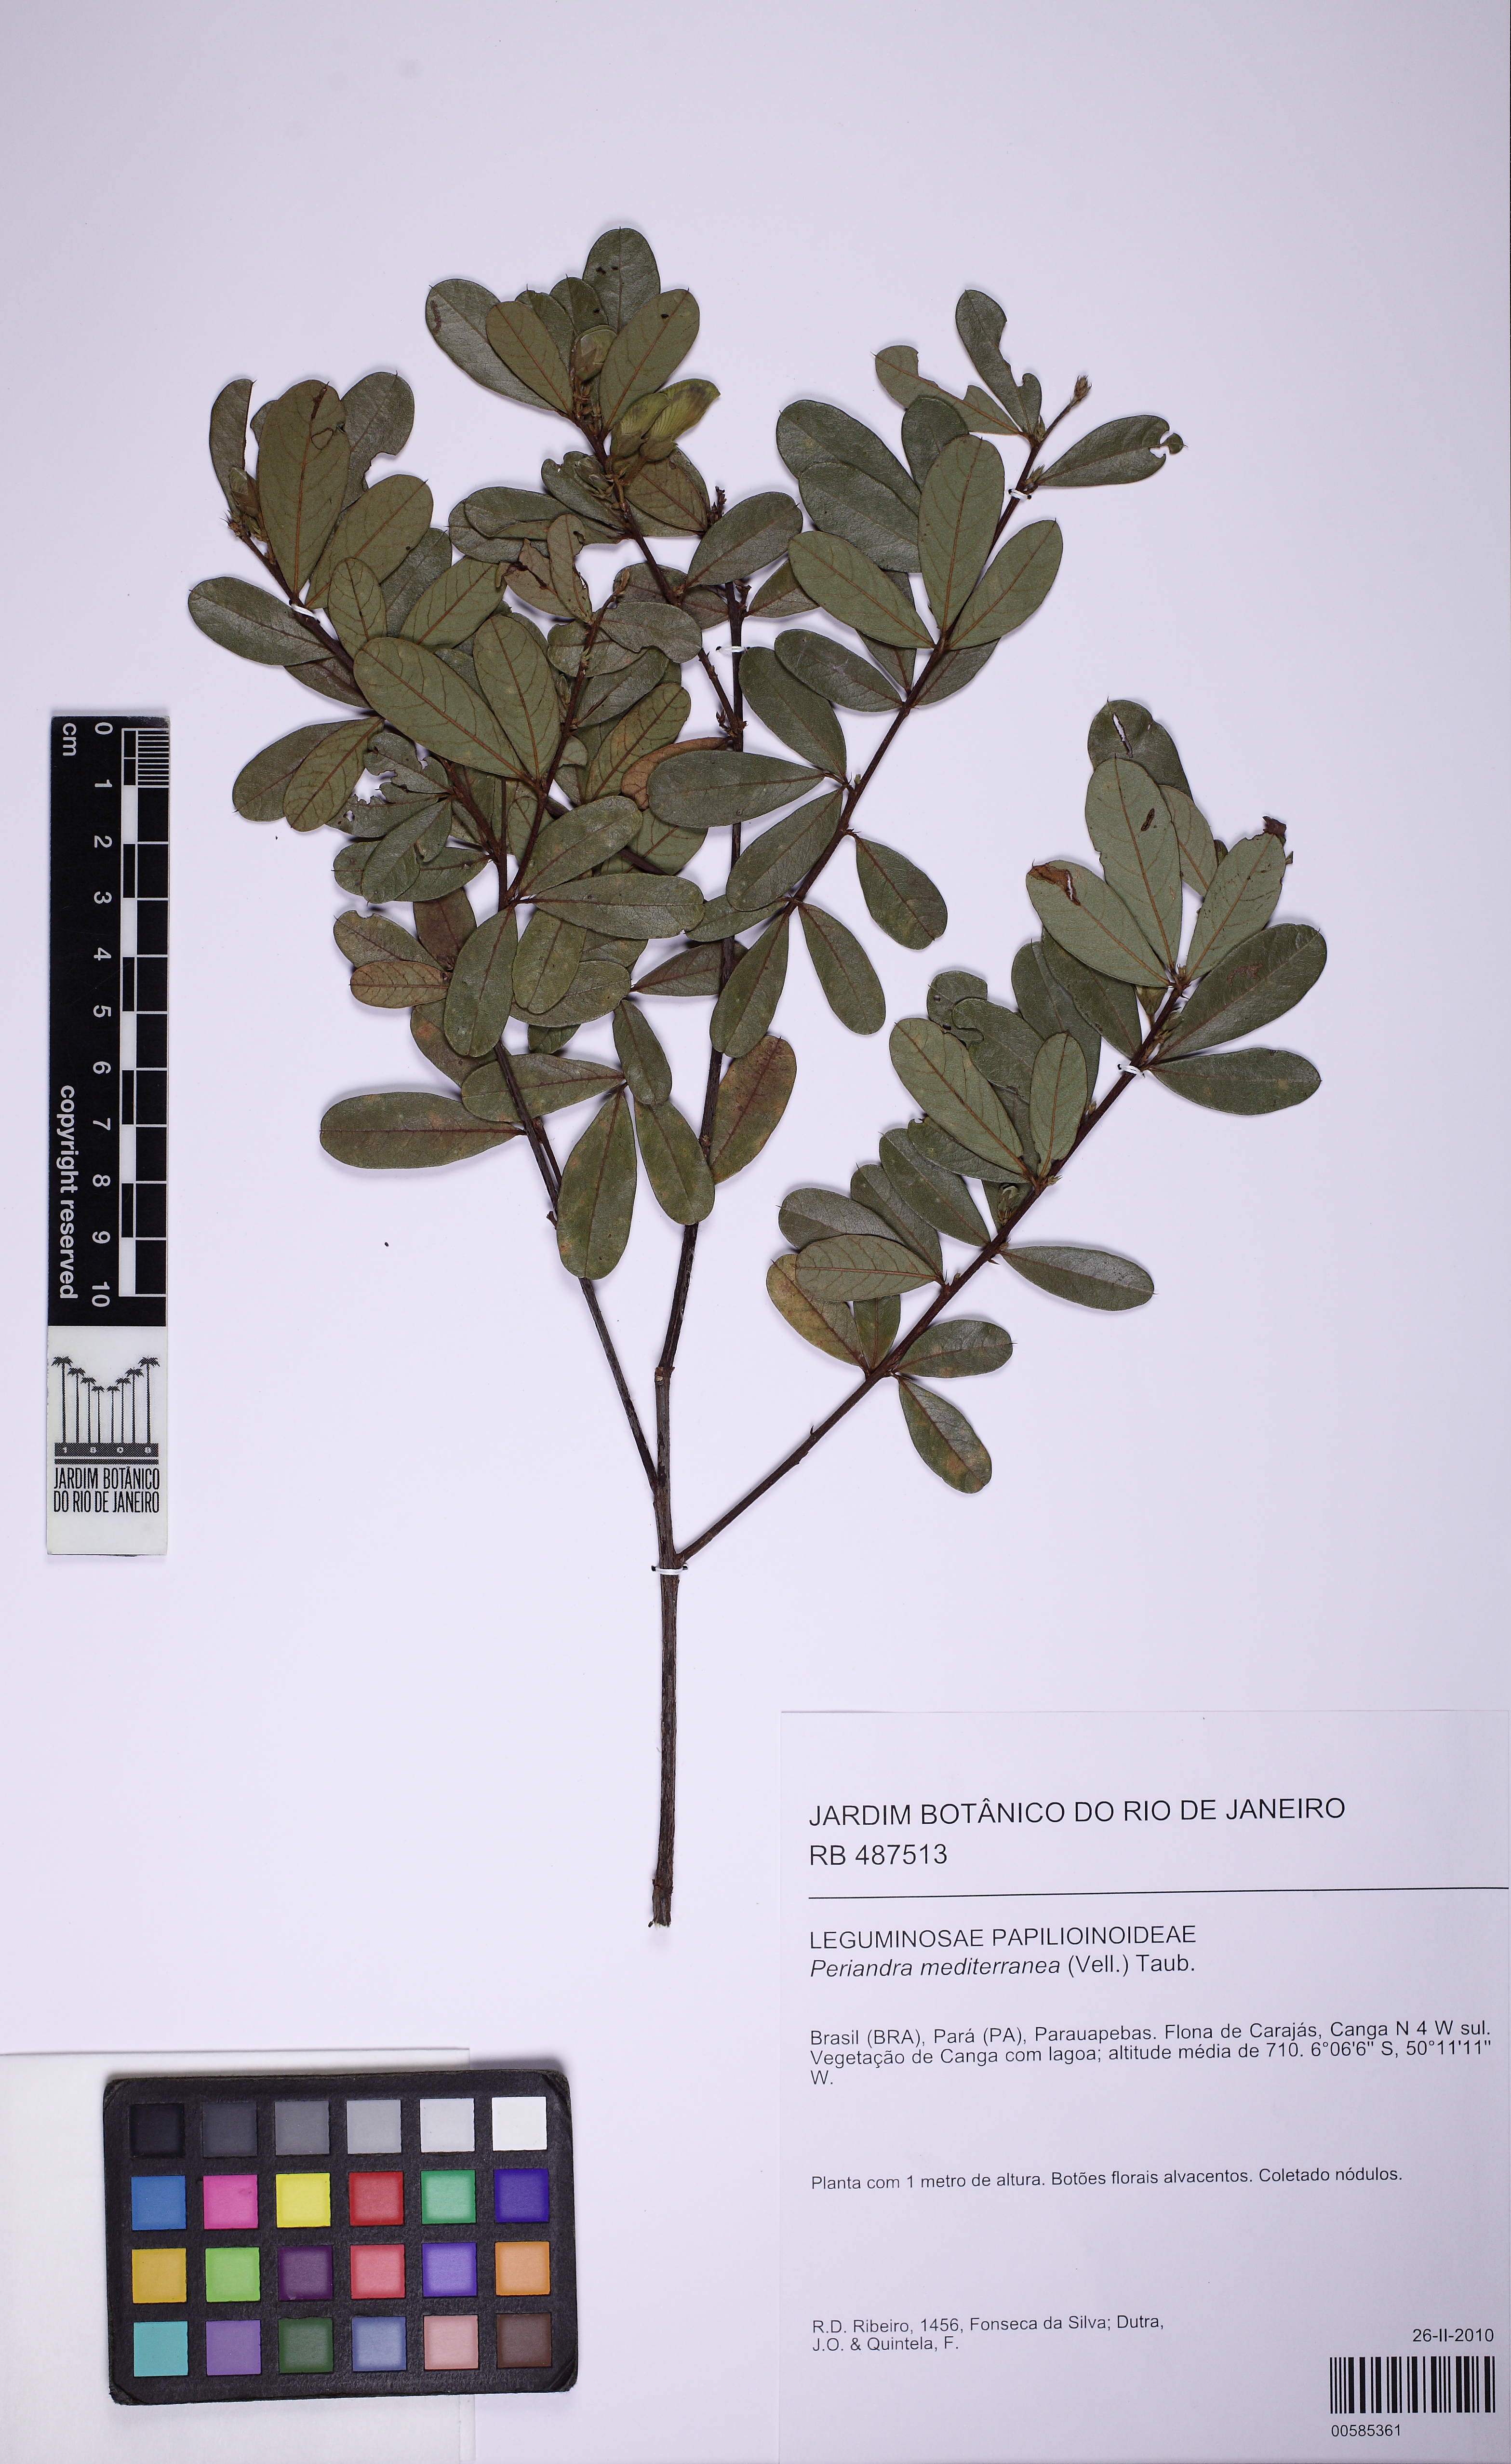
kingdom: Plantae
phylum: Tracheophyta
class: Magnoliopsida
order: Fabales
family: Fabaceae
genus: Periandra
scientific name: Periandra mediterranea
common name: Brazilian licorice
